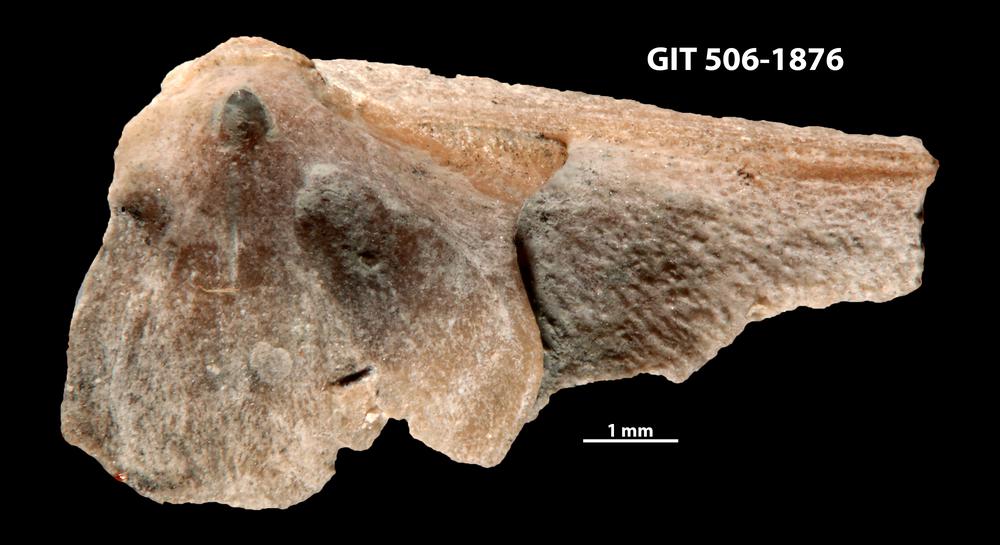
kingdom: Animalia
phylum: Brachiopoda
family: Strophomenidae
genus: Leptaena
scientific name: Leptaena haverfordensis
